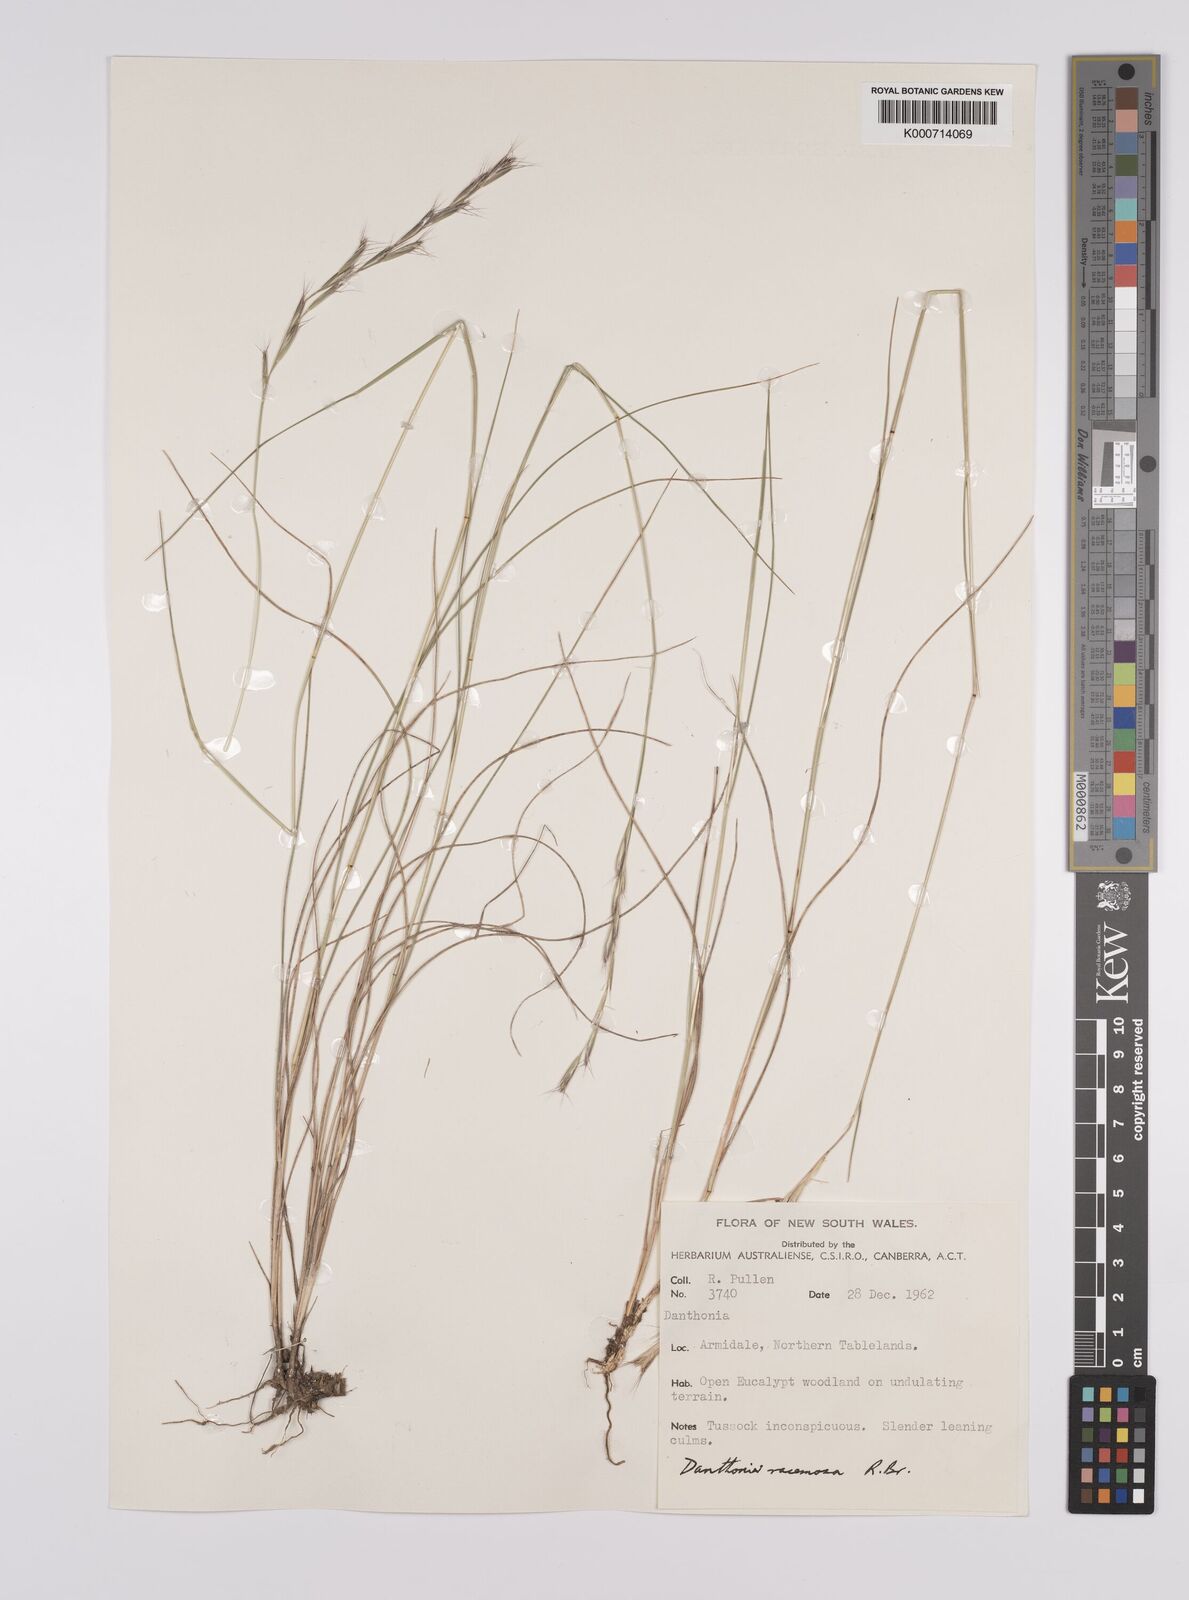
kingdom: Plantae
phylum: Tracheophyta
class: Liliopsida
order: Poales
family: Poaceae
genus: Rytidosperma
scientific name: Rytidosperma racemosum
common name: Wallaby-grass
